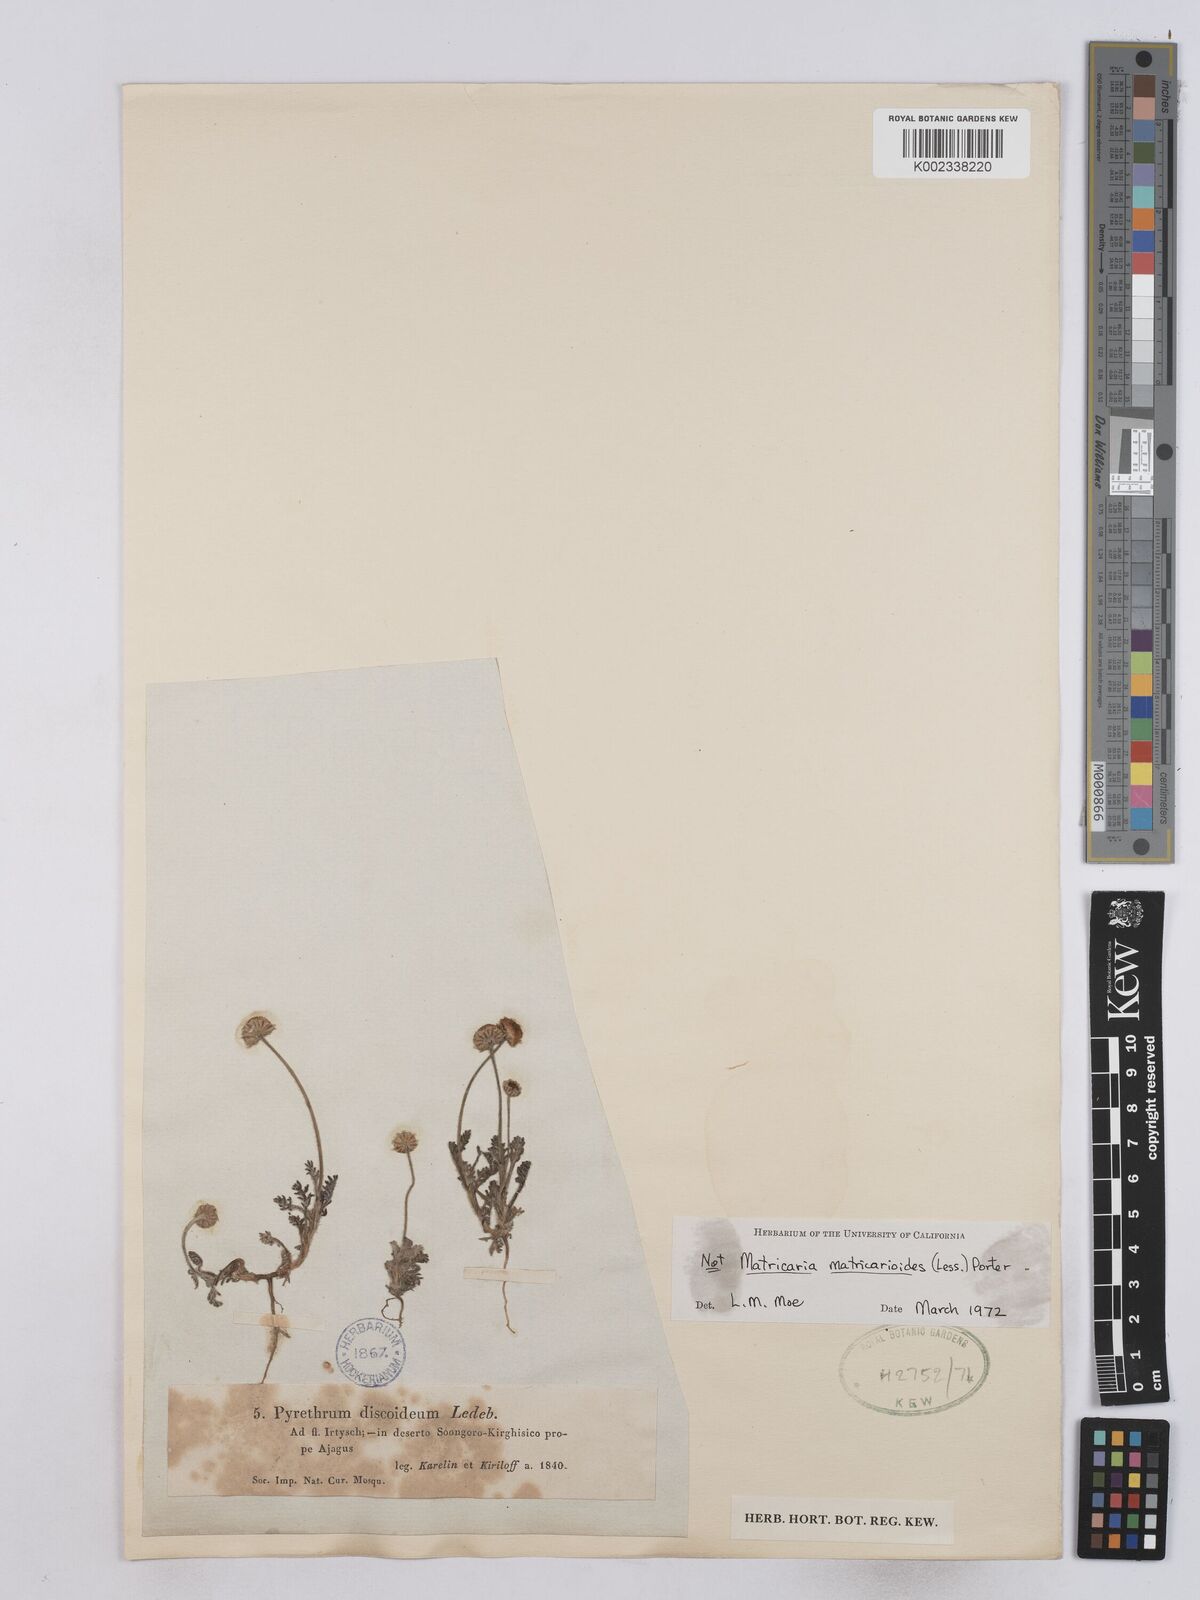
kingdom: Plantae
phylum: Tracheophyta
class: Magnoliopsida
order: Asterales
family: Asteraceae
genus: Matricaria
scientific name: Matricaria
